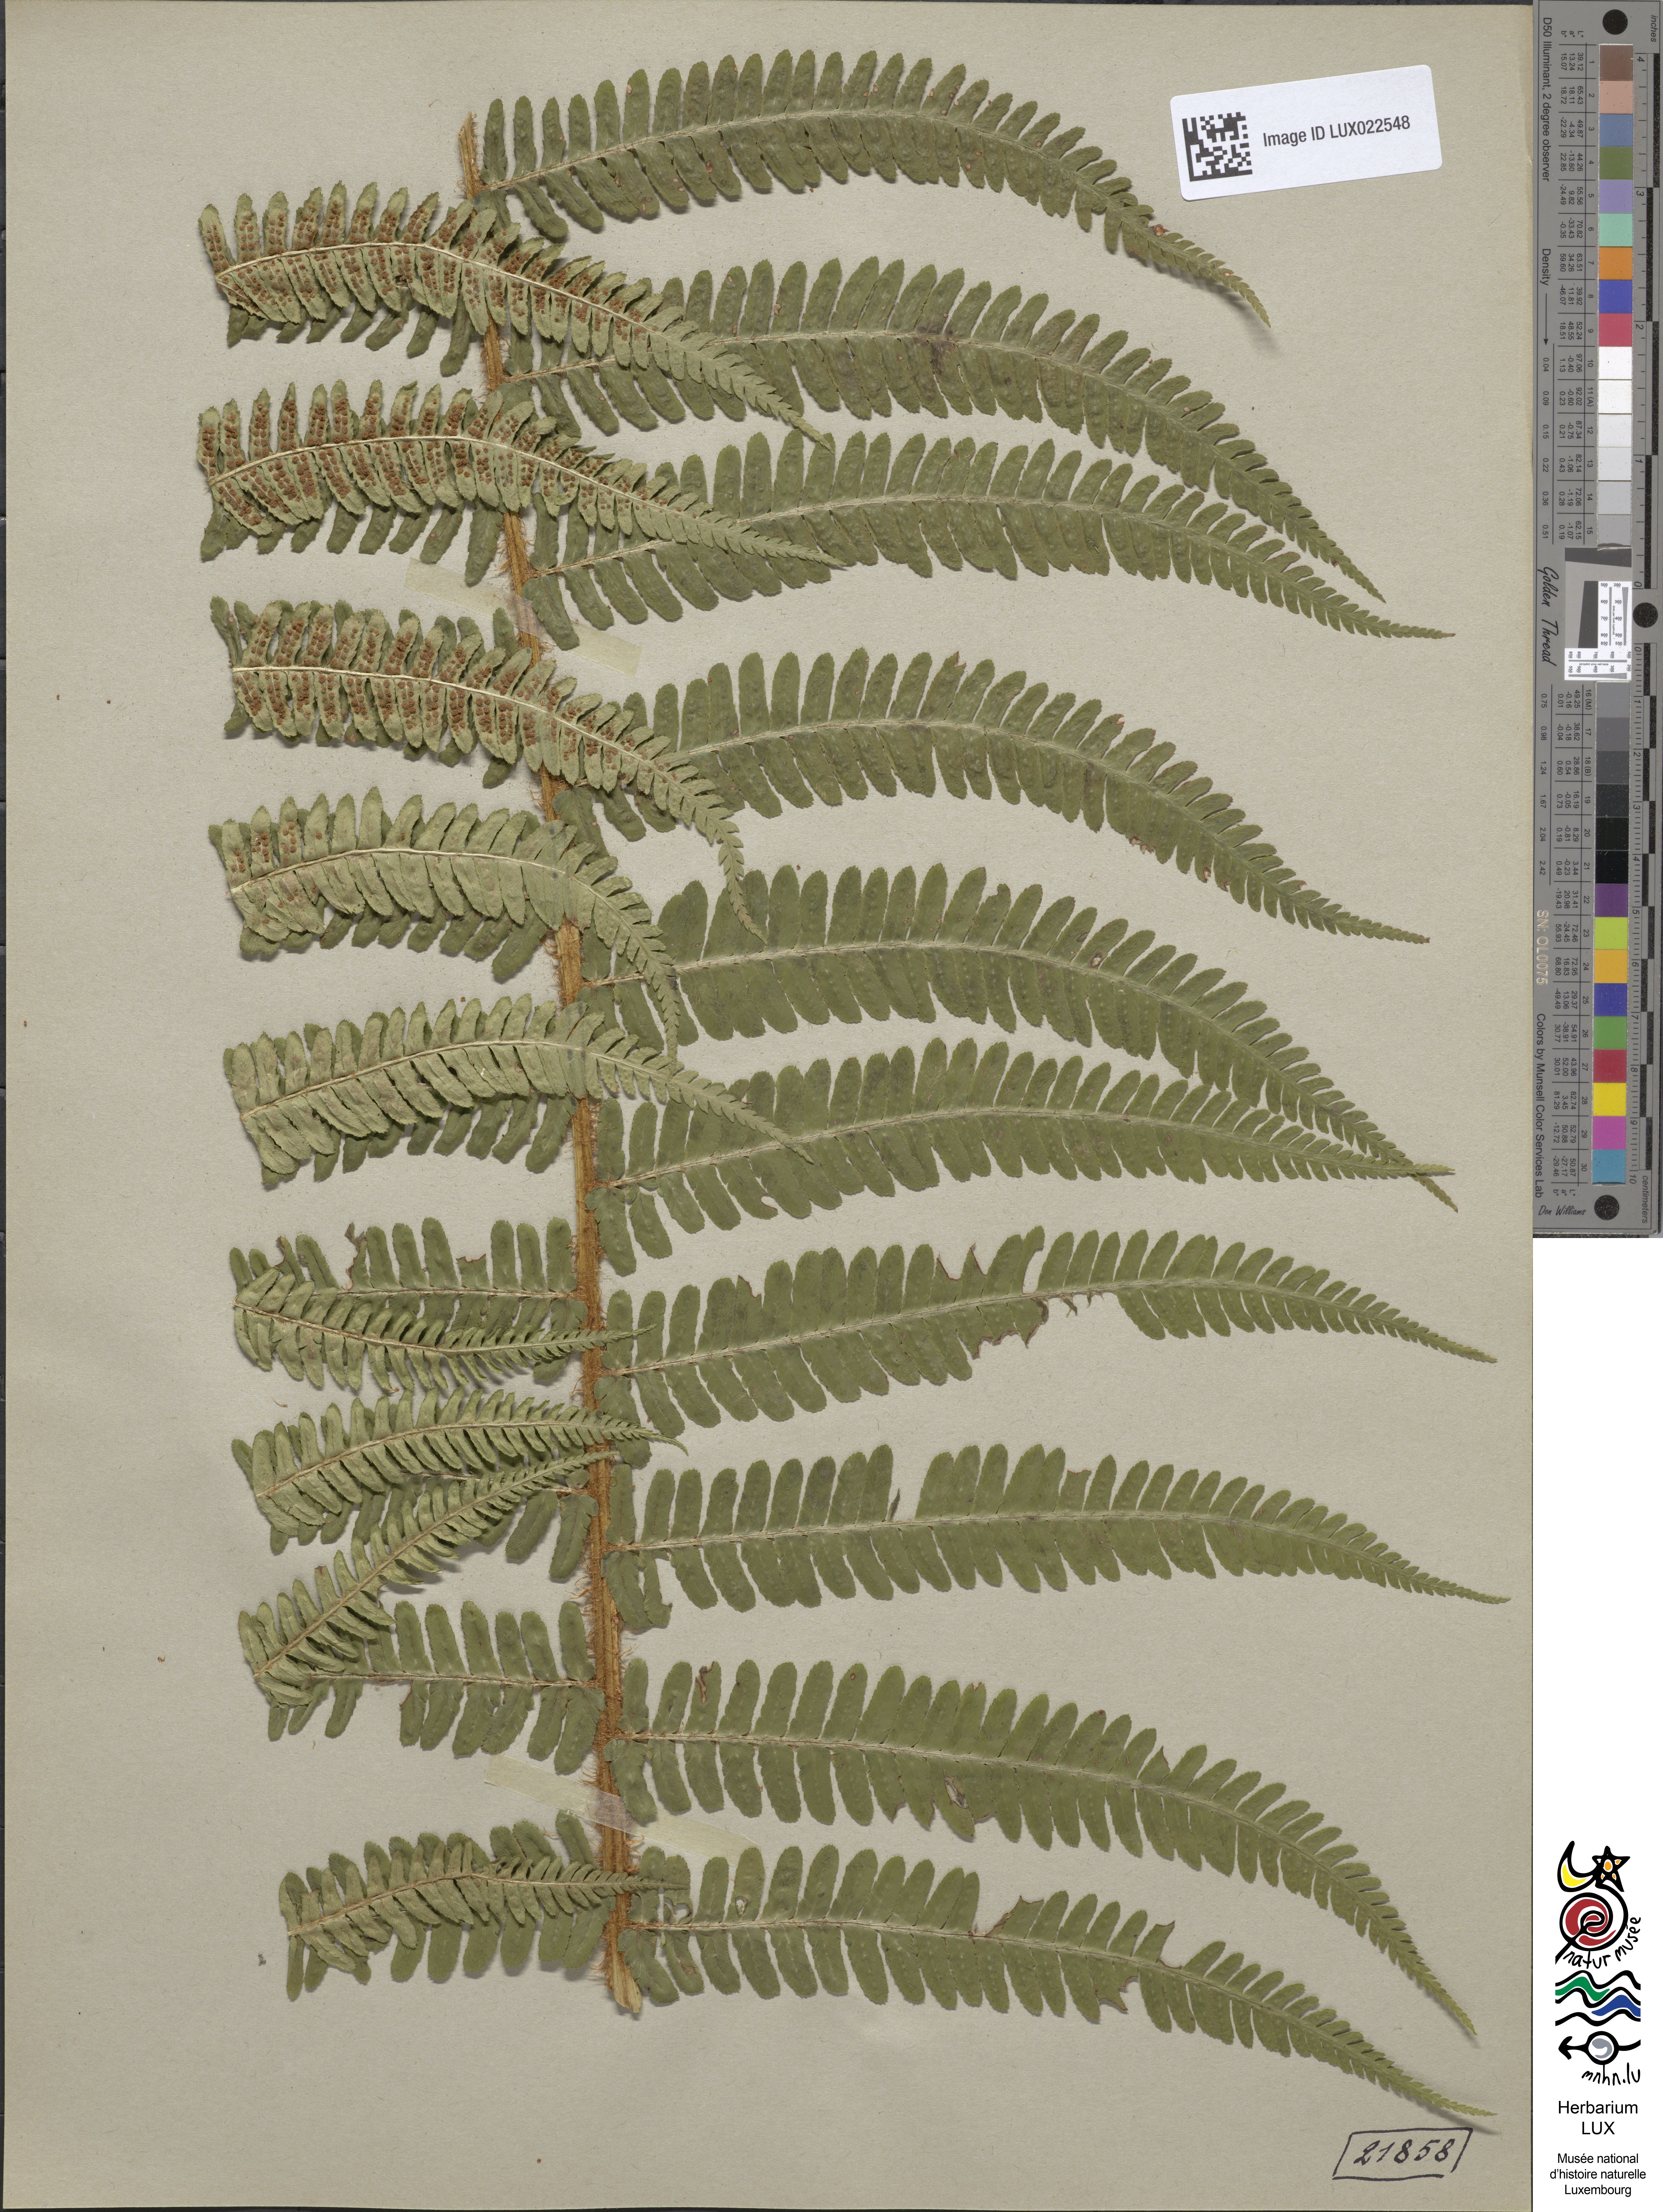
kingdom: Plantae
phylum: Tracheophyta
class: Polypodiopsida
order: Polypodiales
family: Dryopteridaceae
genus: Dryopteris
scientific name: Dryopteris borreri
